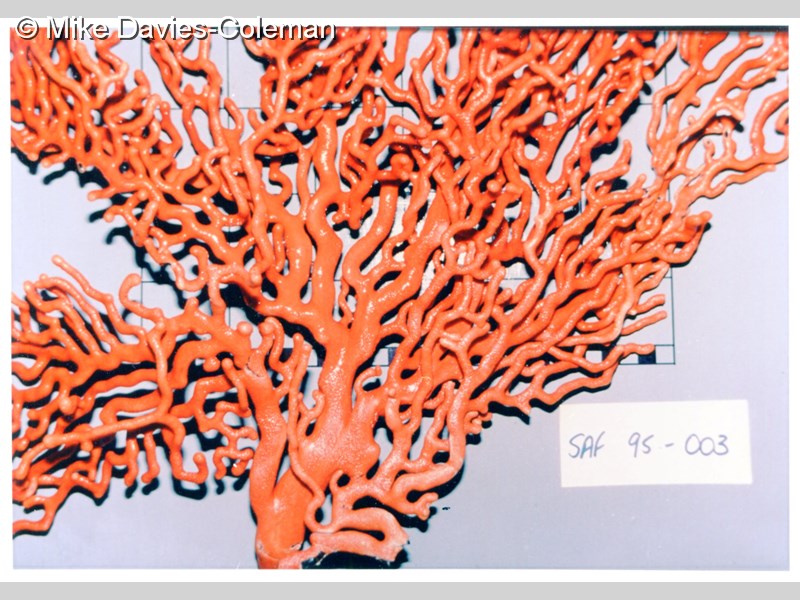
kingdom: Animalia
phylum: Cnidaria
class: Anthozoa
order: Malacalcyonacea
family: Eunicellidae
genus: Eunicella
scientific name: Eunicella tricoronata
